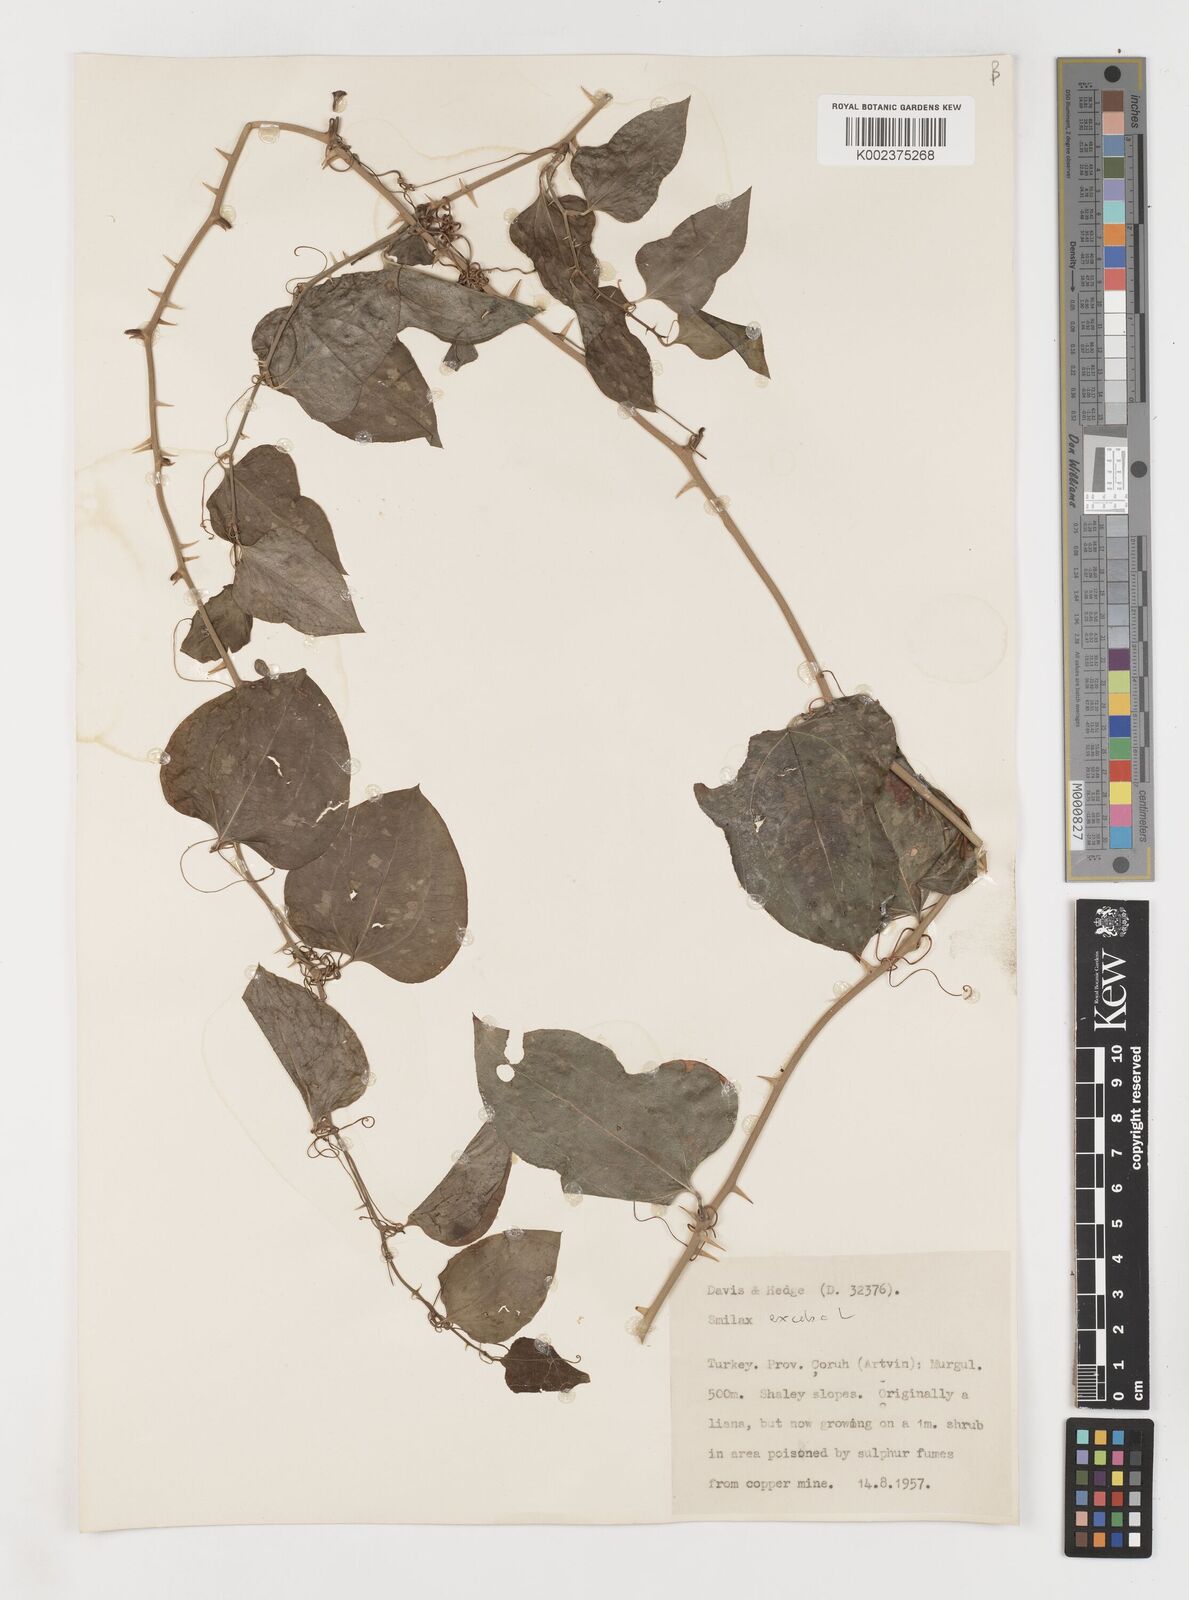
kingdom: Plantae
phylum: Tracheophyta
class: Liliopsida
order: Liliales
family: Smilacaceae
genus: Smilax
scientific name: Smilax excelsa
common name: Larger smilax
